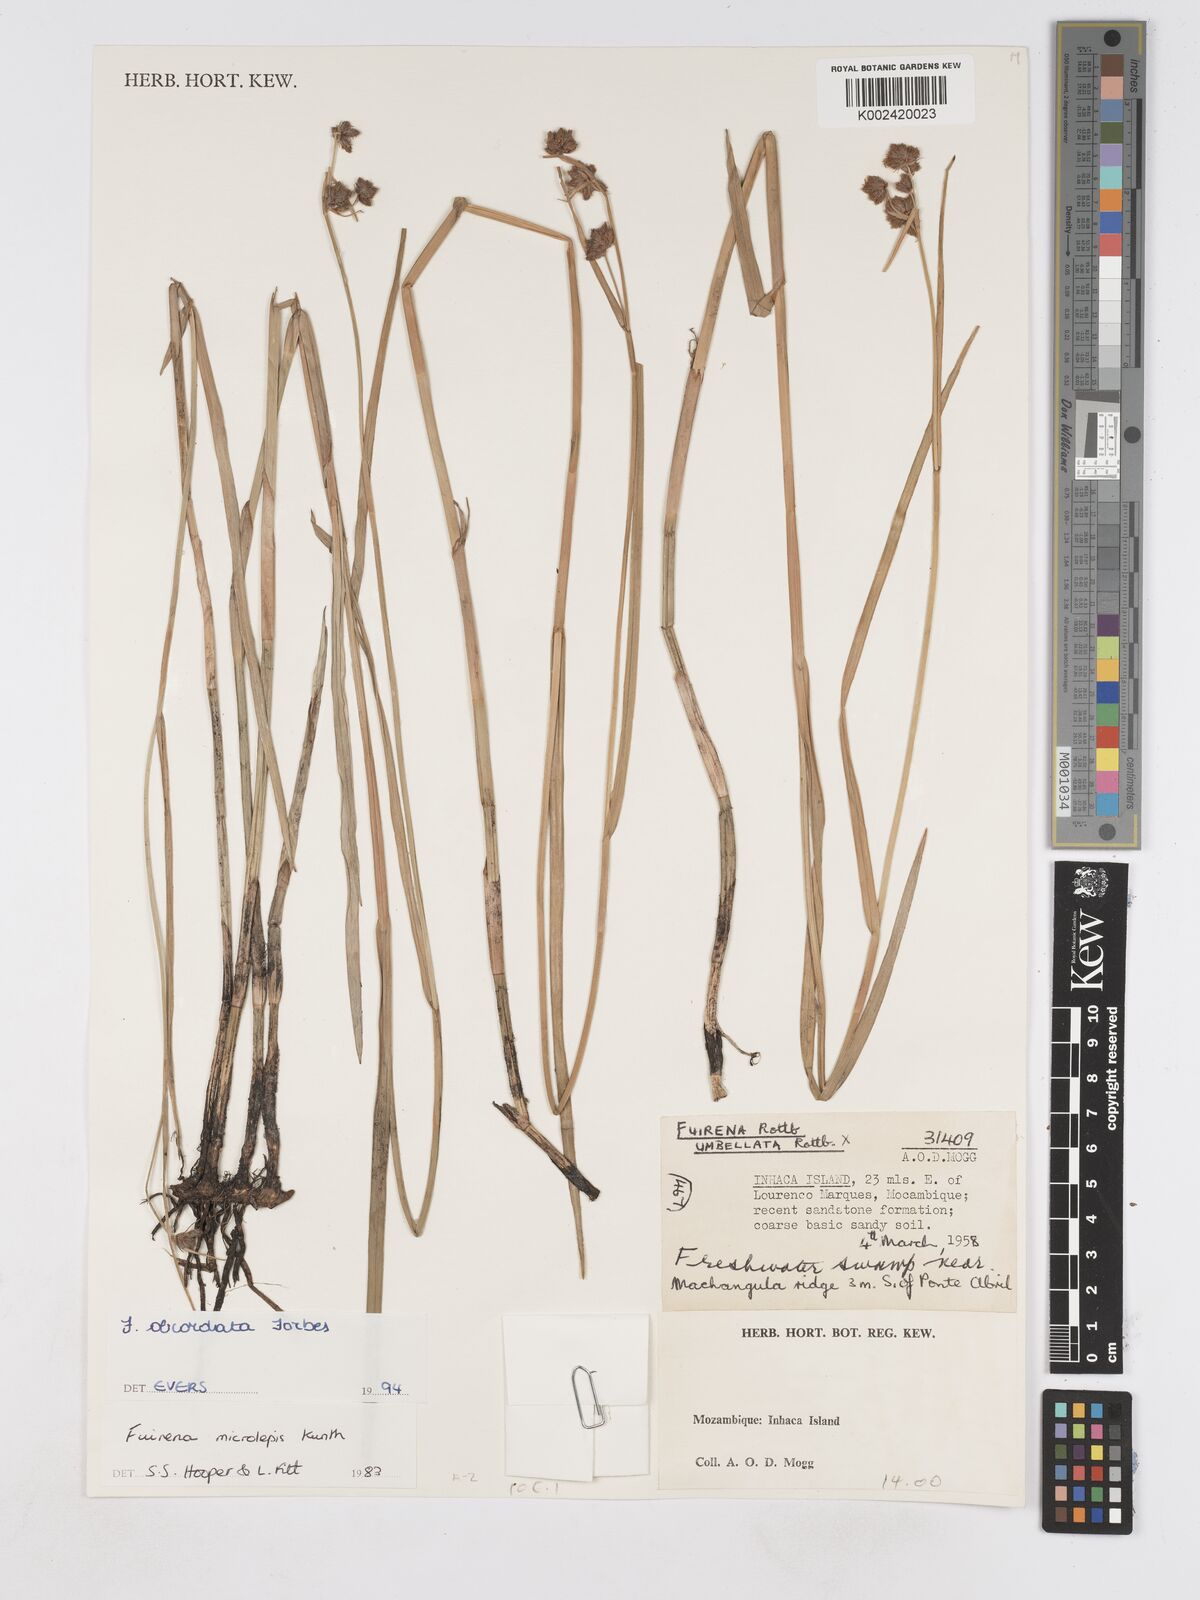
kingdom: Plantae
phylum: Tracheophyta
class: Liliopsida
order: Poales
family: Cyperaceae
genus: Fuirena
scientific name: Fuirena obcordata
